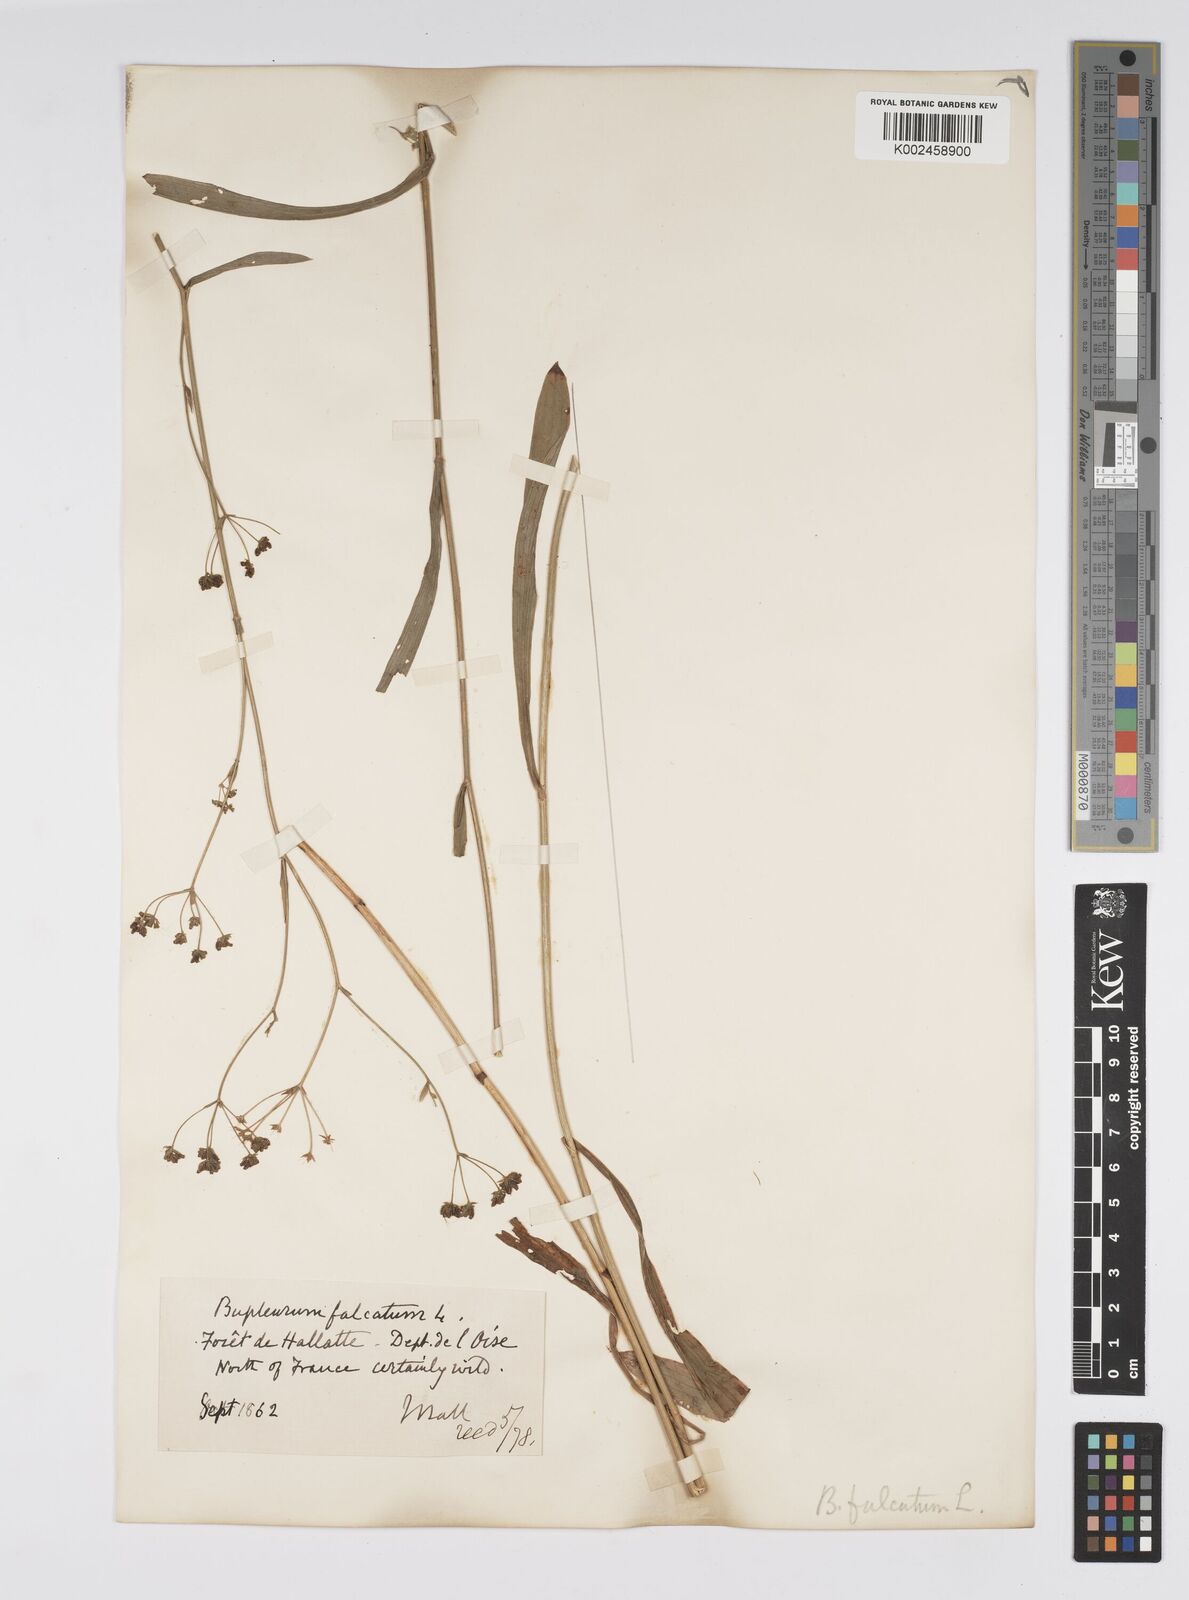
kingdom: Plantae
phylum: Tracheophyta
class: Magnoliopsida
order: Apiales
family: Apiaceae
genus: Bupleurum
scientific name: Bupleurum falcatum
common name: Sickle-leaved hare's-ear
